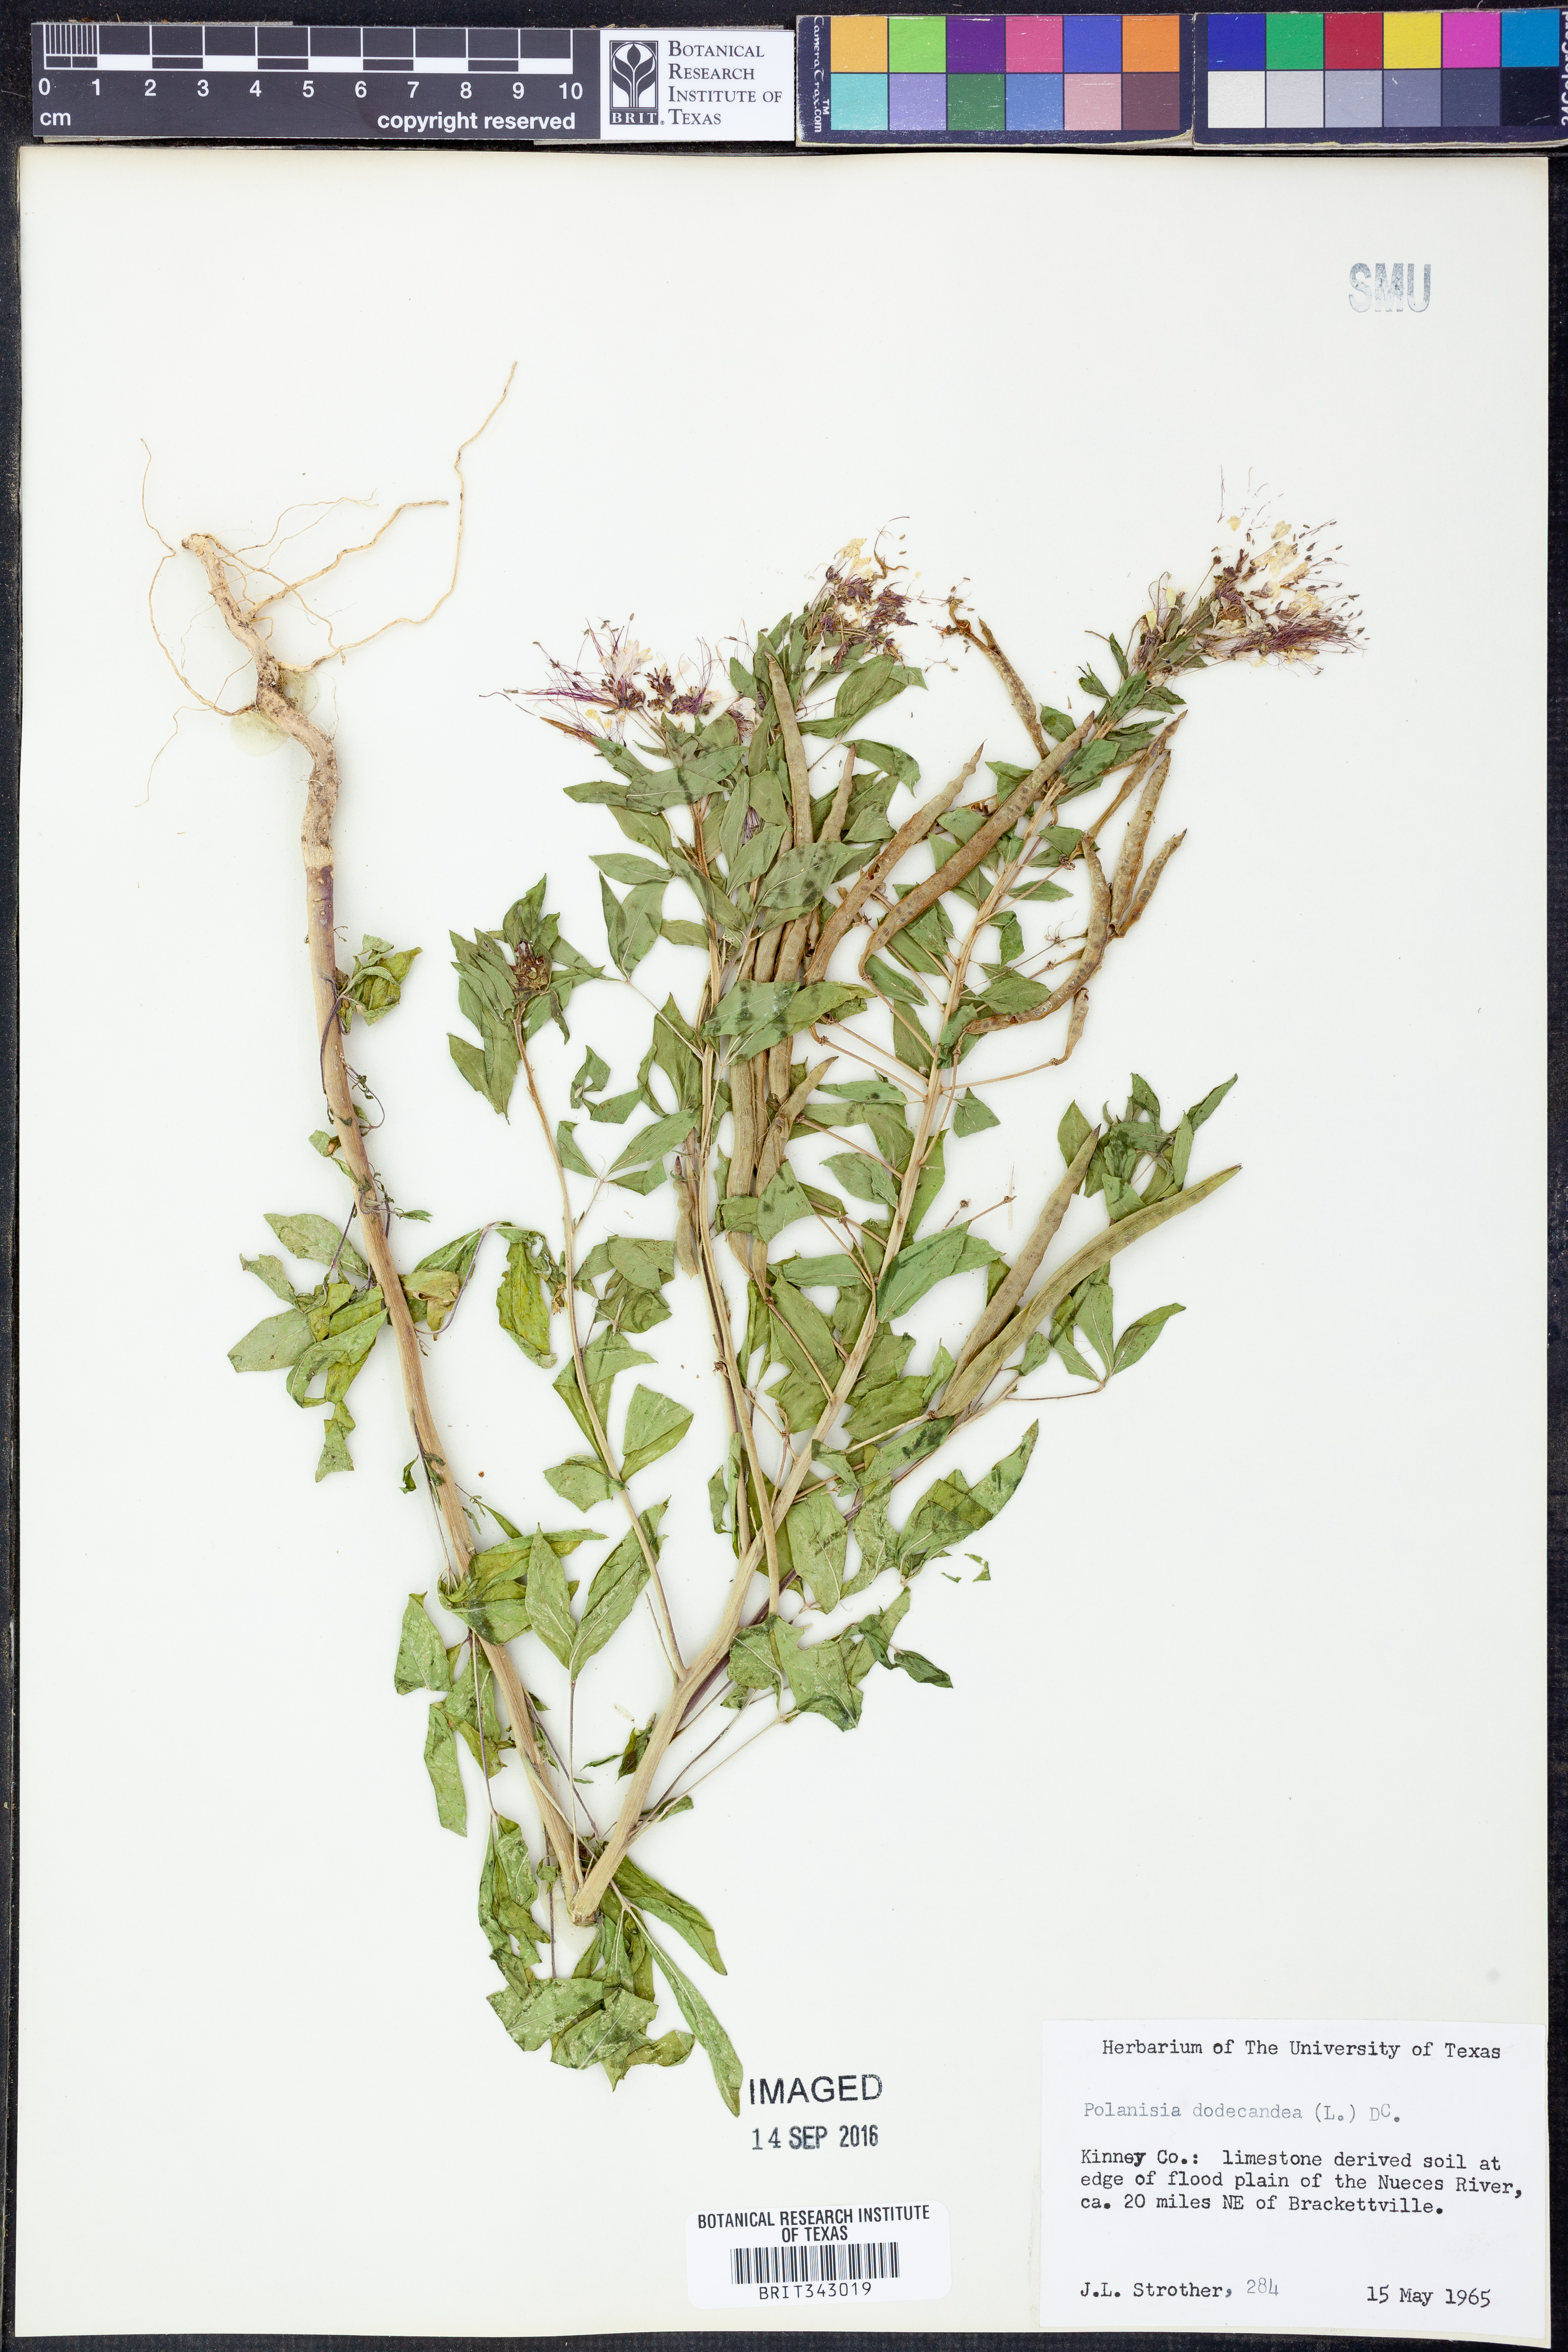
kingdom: Plantae
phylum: Tracheophyta
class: Magnoliopsida
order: Brassicales
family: Cleomaceae
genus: Polanisia
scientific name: Polanisia dodecandra
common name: Clammyweed
